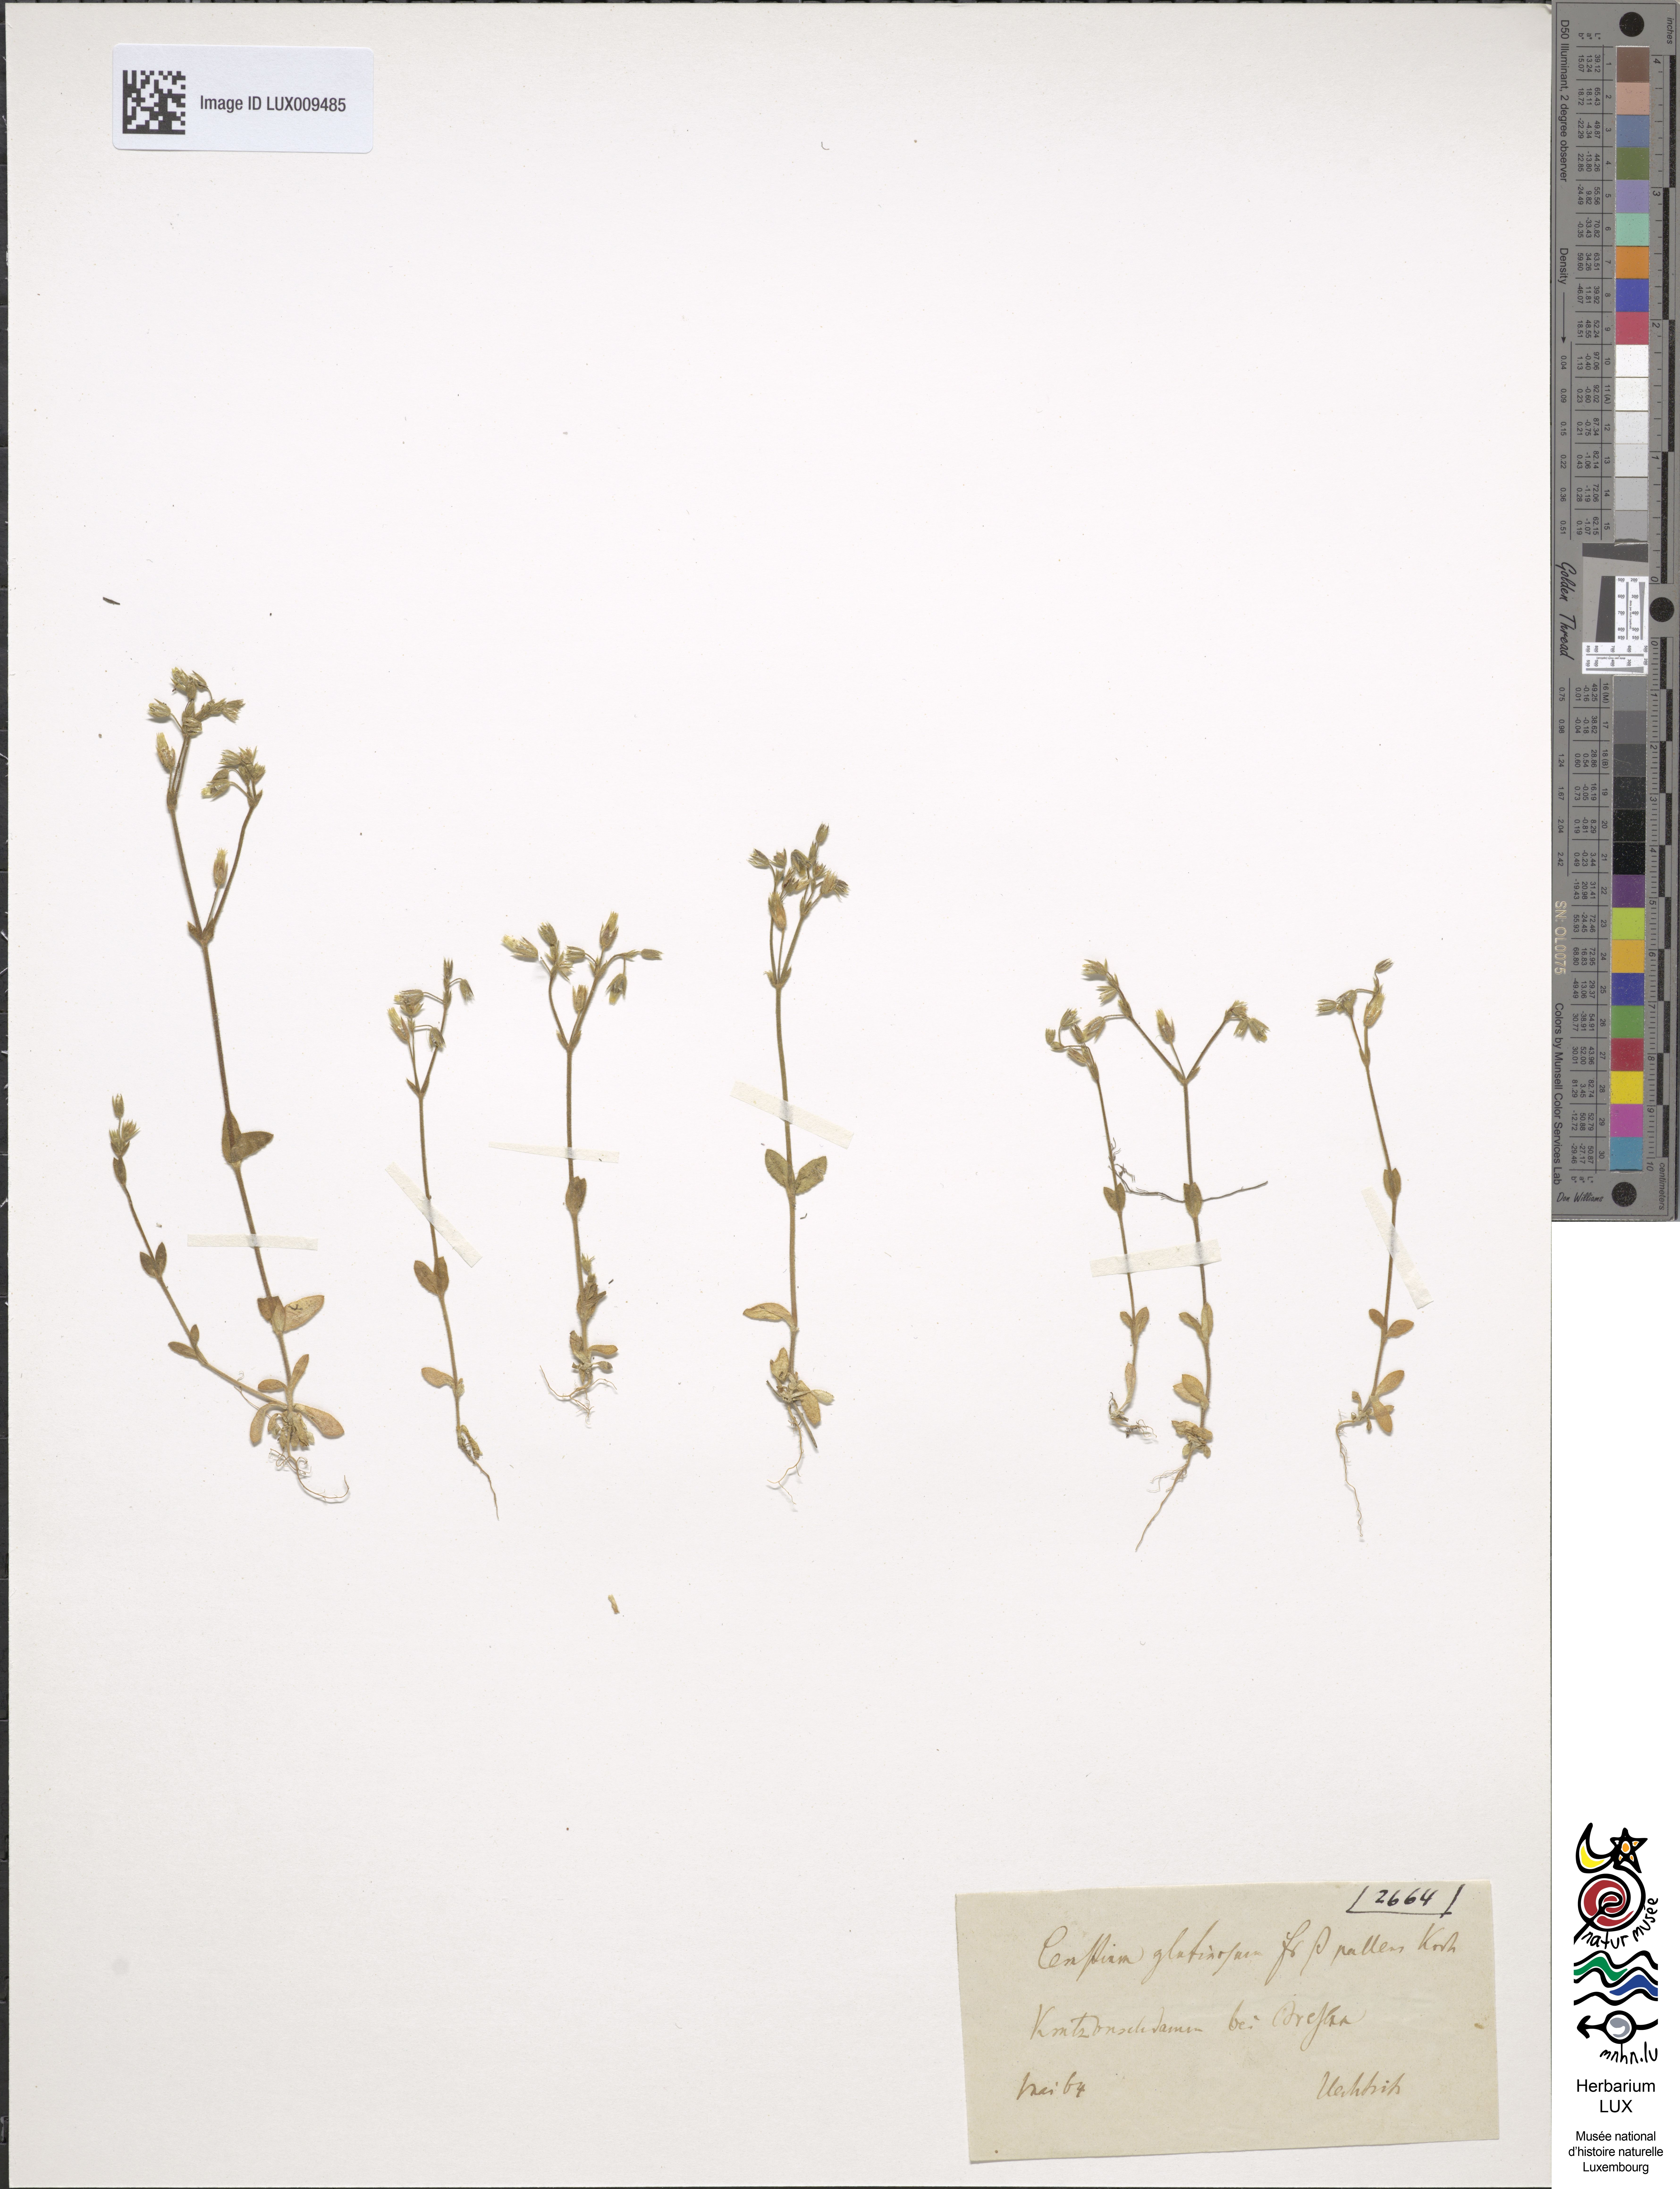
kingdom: Plantae
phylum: Tracheophyta
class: Magnoliopsida
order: Caryophyllales
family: Caryophyllaceae
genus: Cerastium
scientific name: Cerastium pumilum
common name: Dwarf mouse-ear
